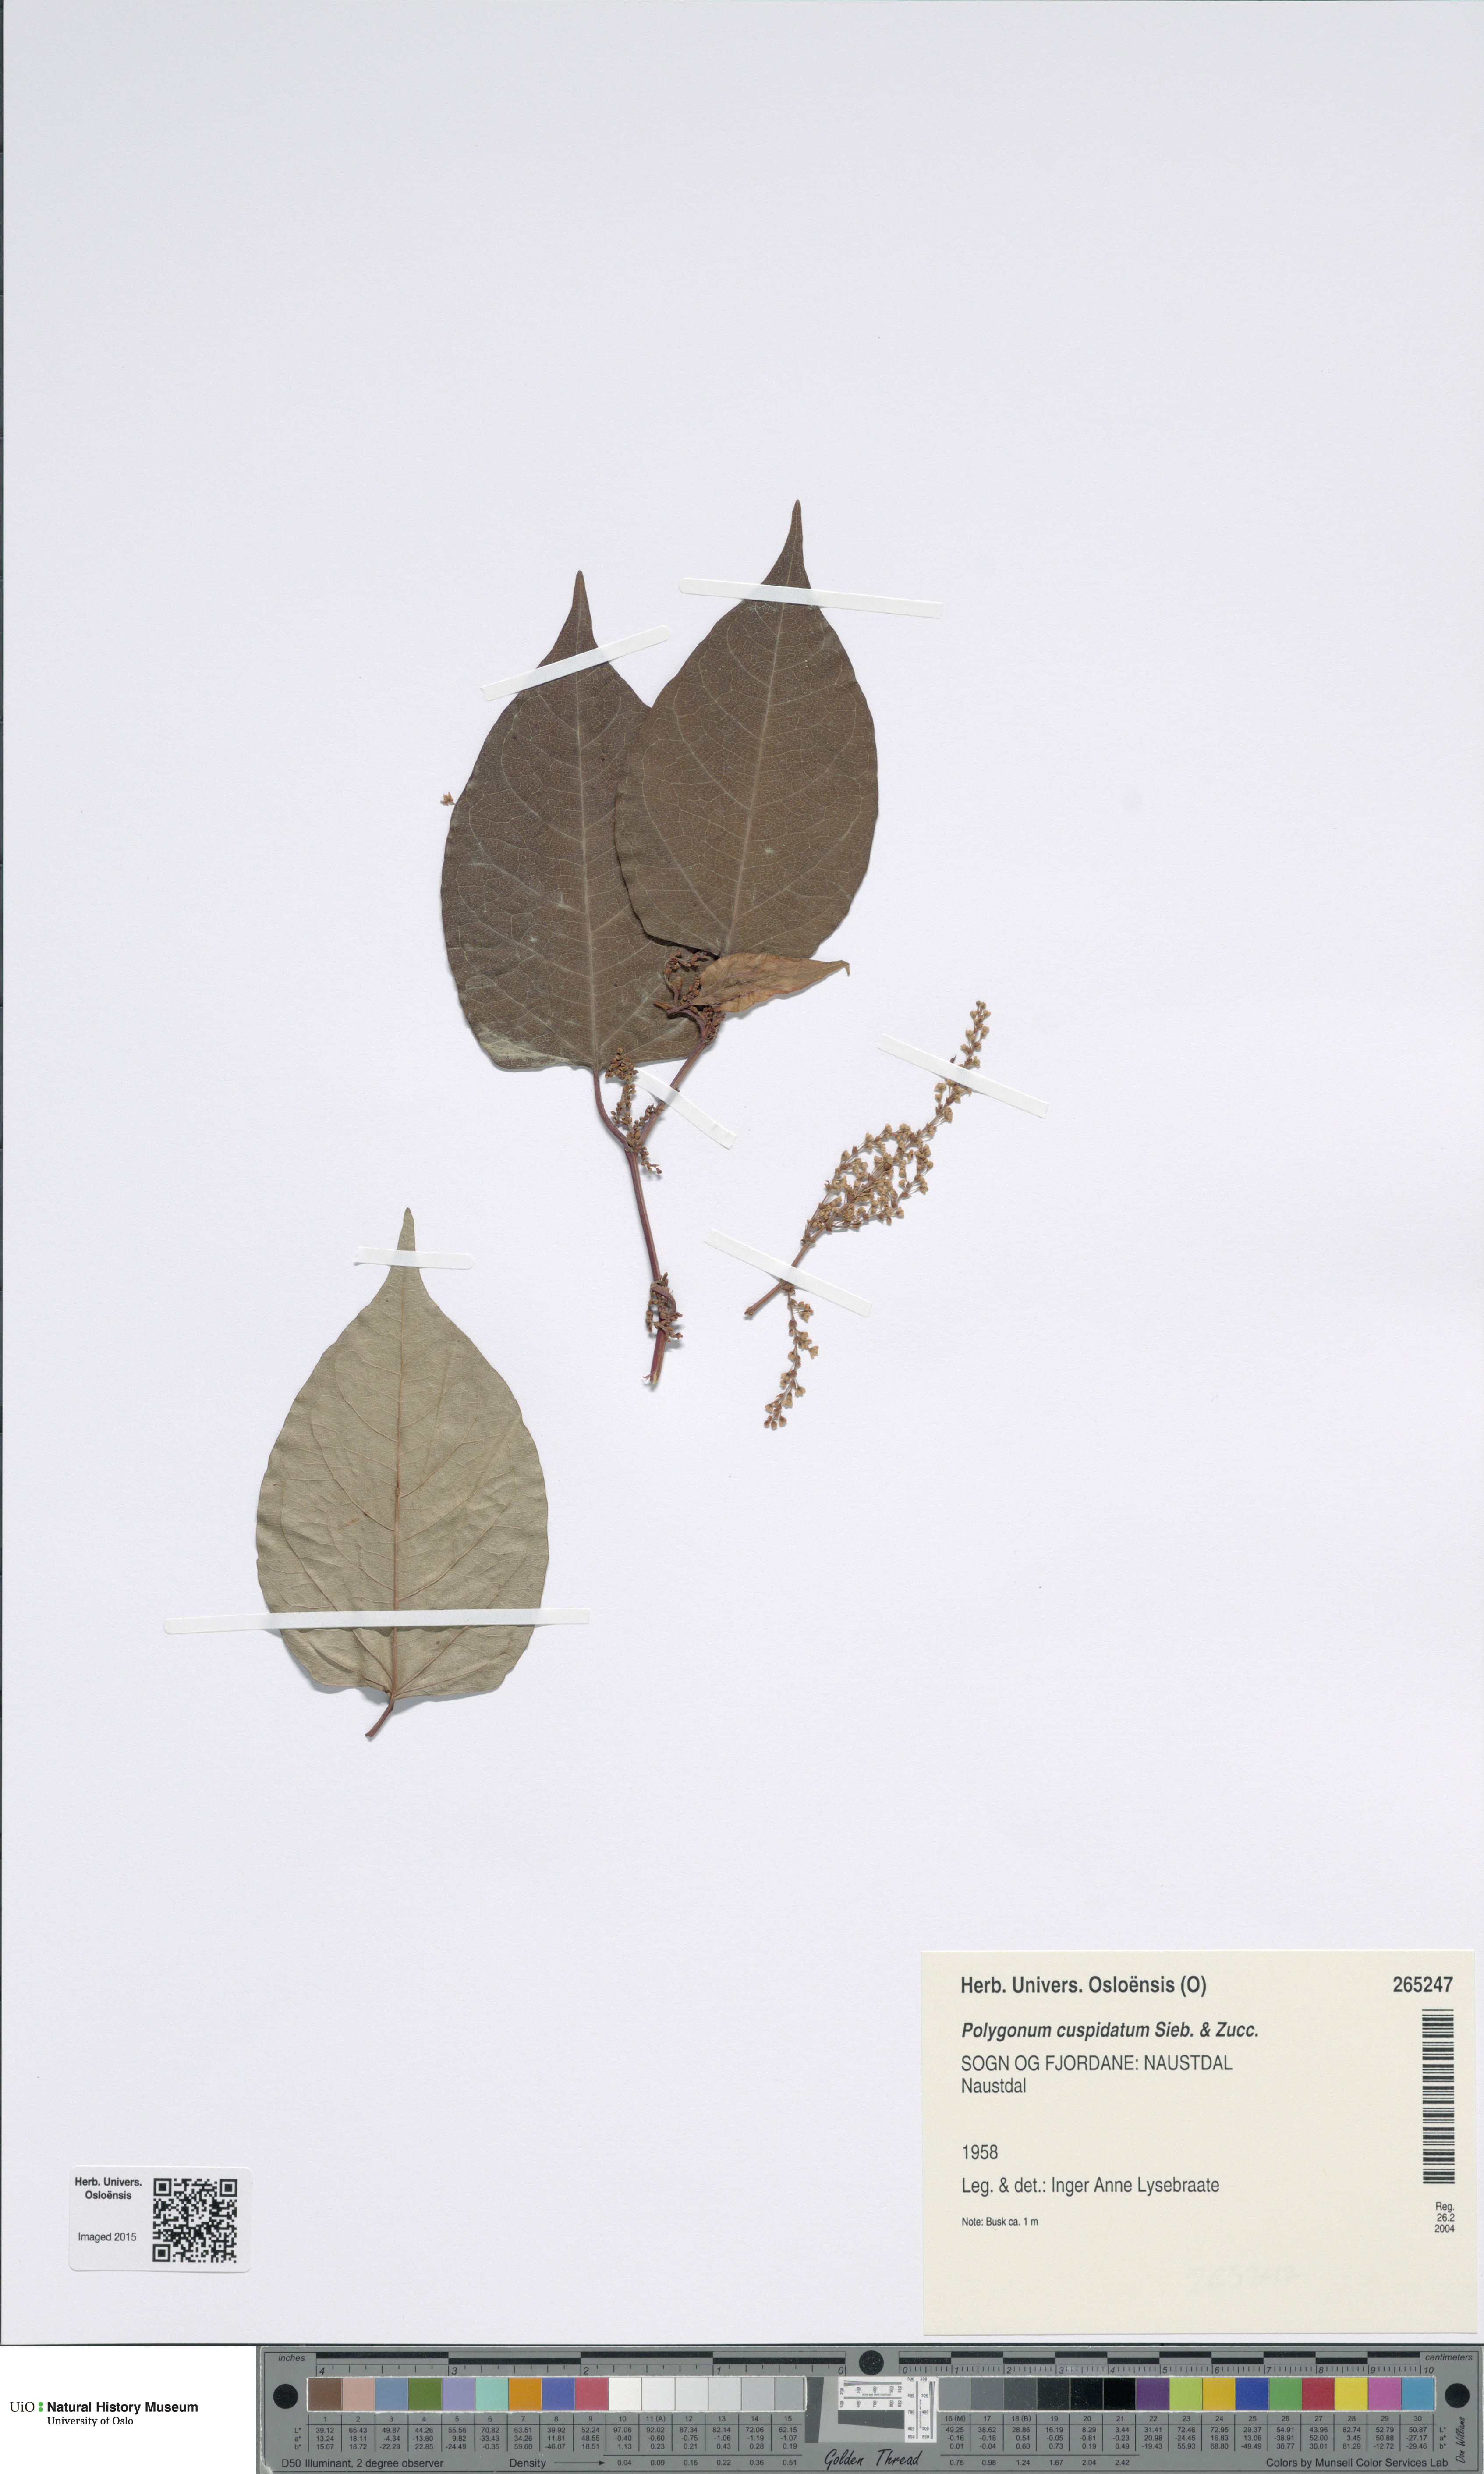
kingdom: Plantae
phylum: Tracheophyta
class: Magnoliopsida
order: Caryophyllales
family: Polygonaceae
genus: Reynoutria
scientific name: Reynoutria japonica
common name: Japanese knotweed
